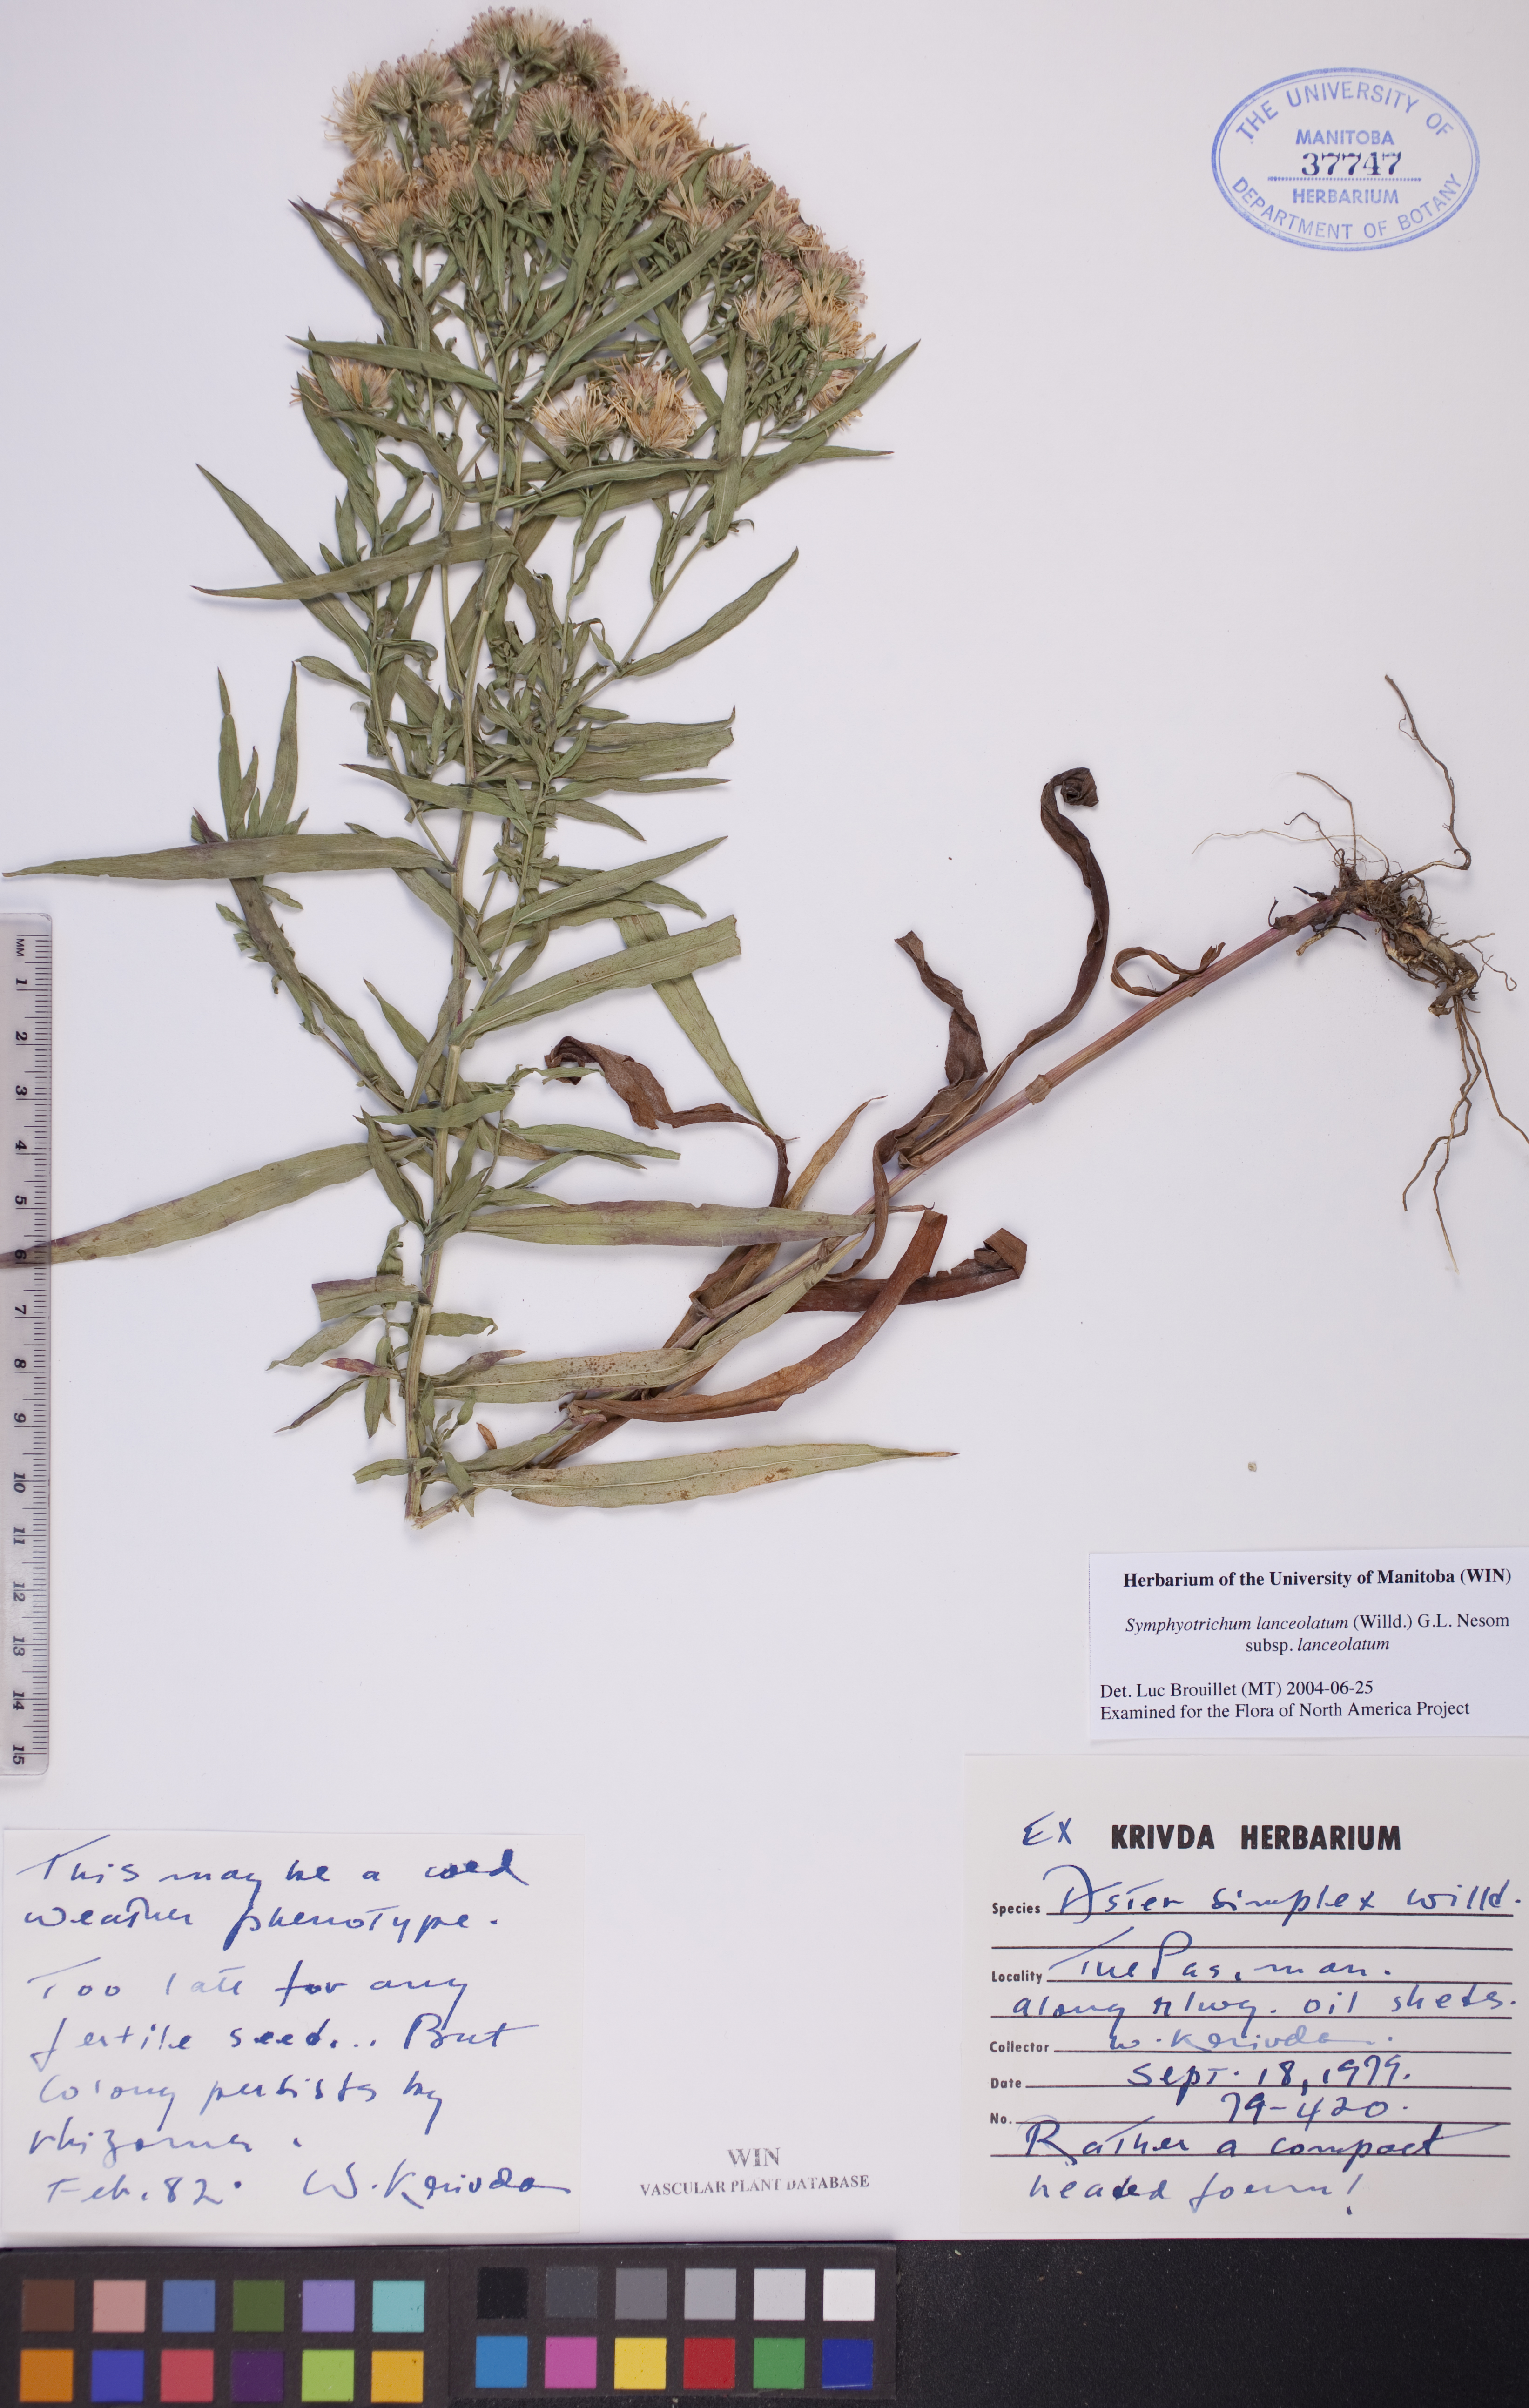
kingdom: Plantae
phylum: Tracheophyta
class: Magnoliopsida
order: Asterales
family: Asteraceae
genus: Symphyotrichum
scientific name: Symphyotrichum lanceolatum
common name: Panicled aster
